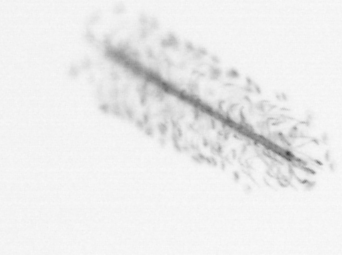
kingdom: Chromista
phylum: Ochrophyta
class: Bacillariophyceae
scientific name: Bacillariophyceae
